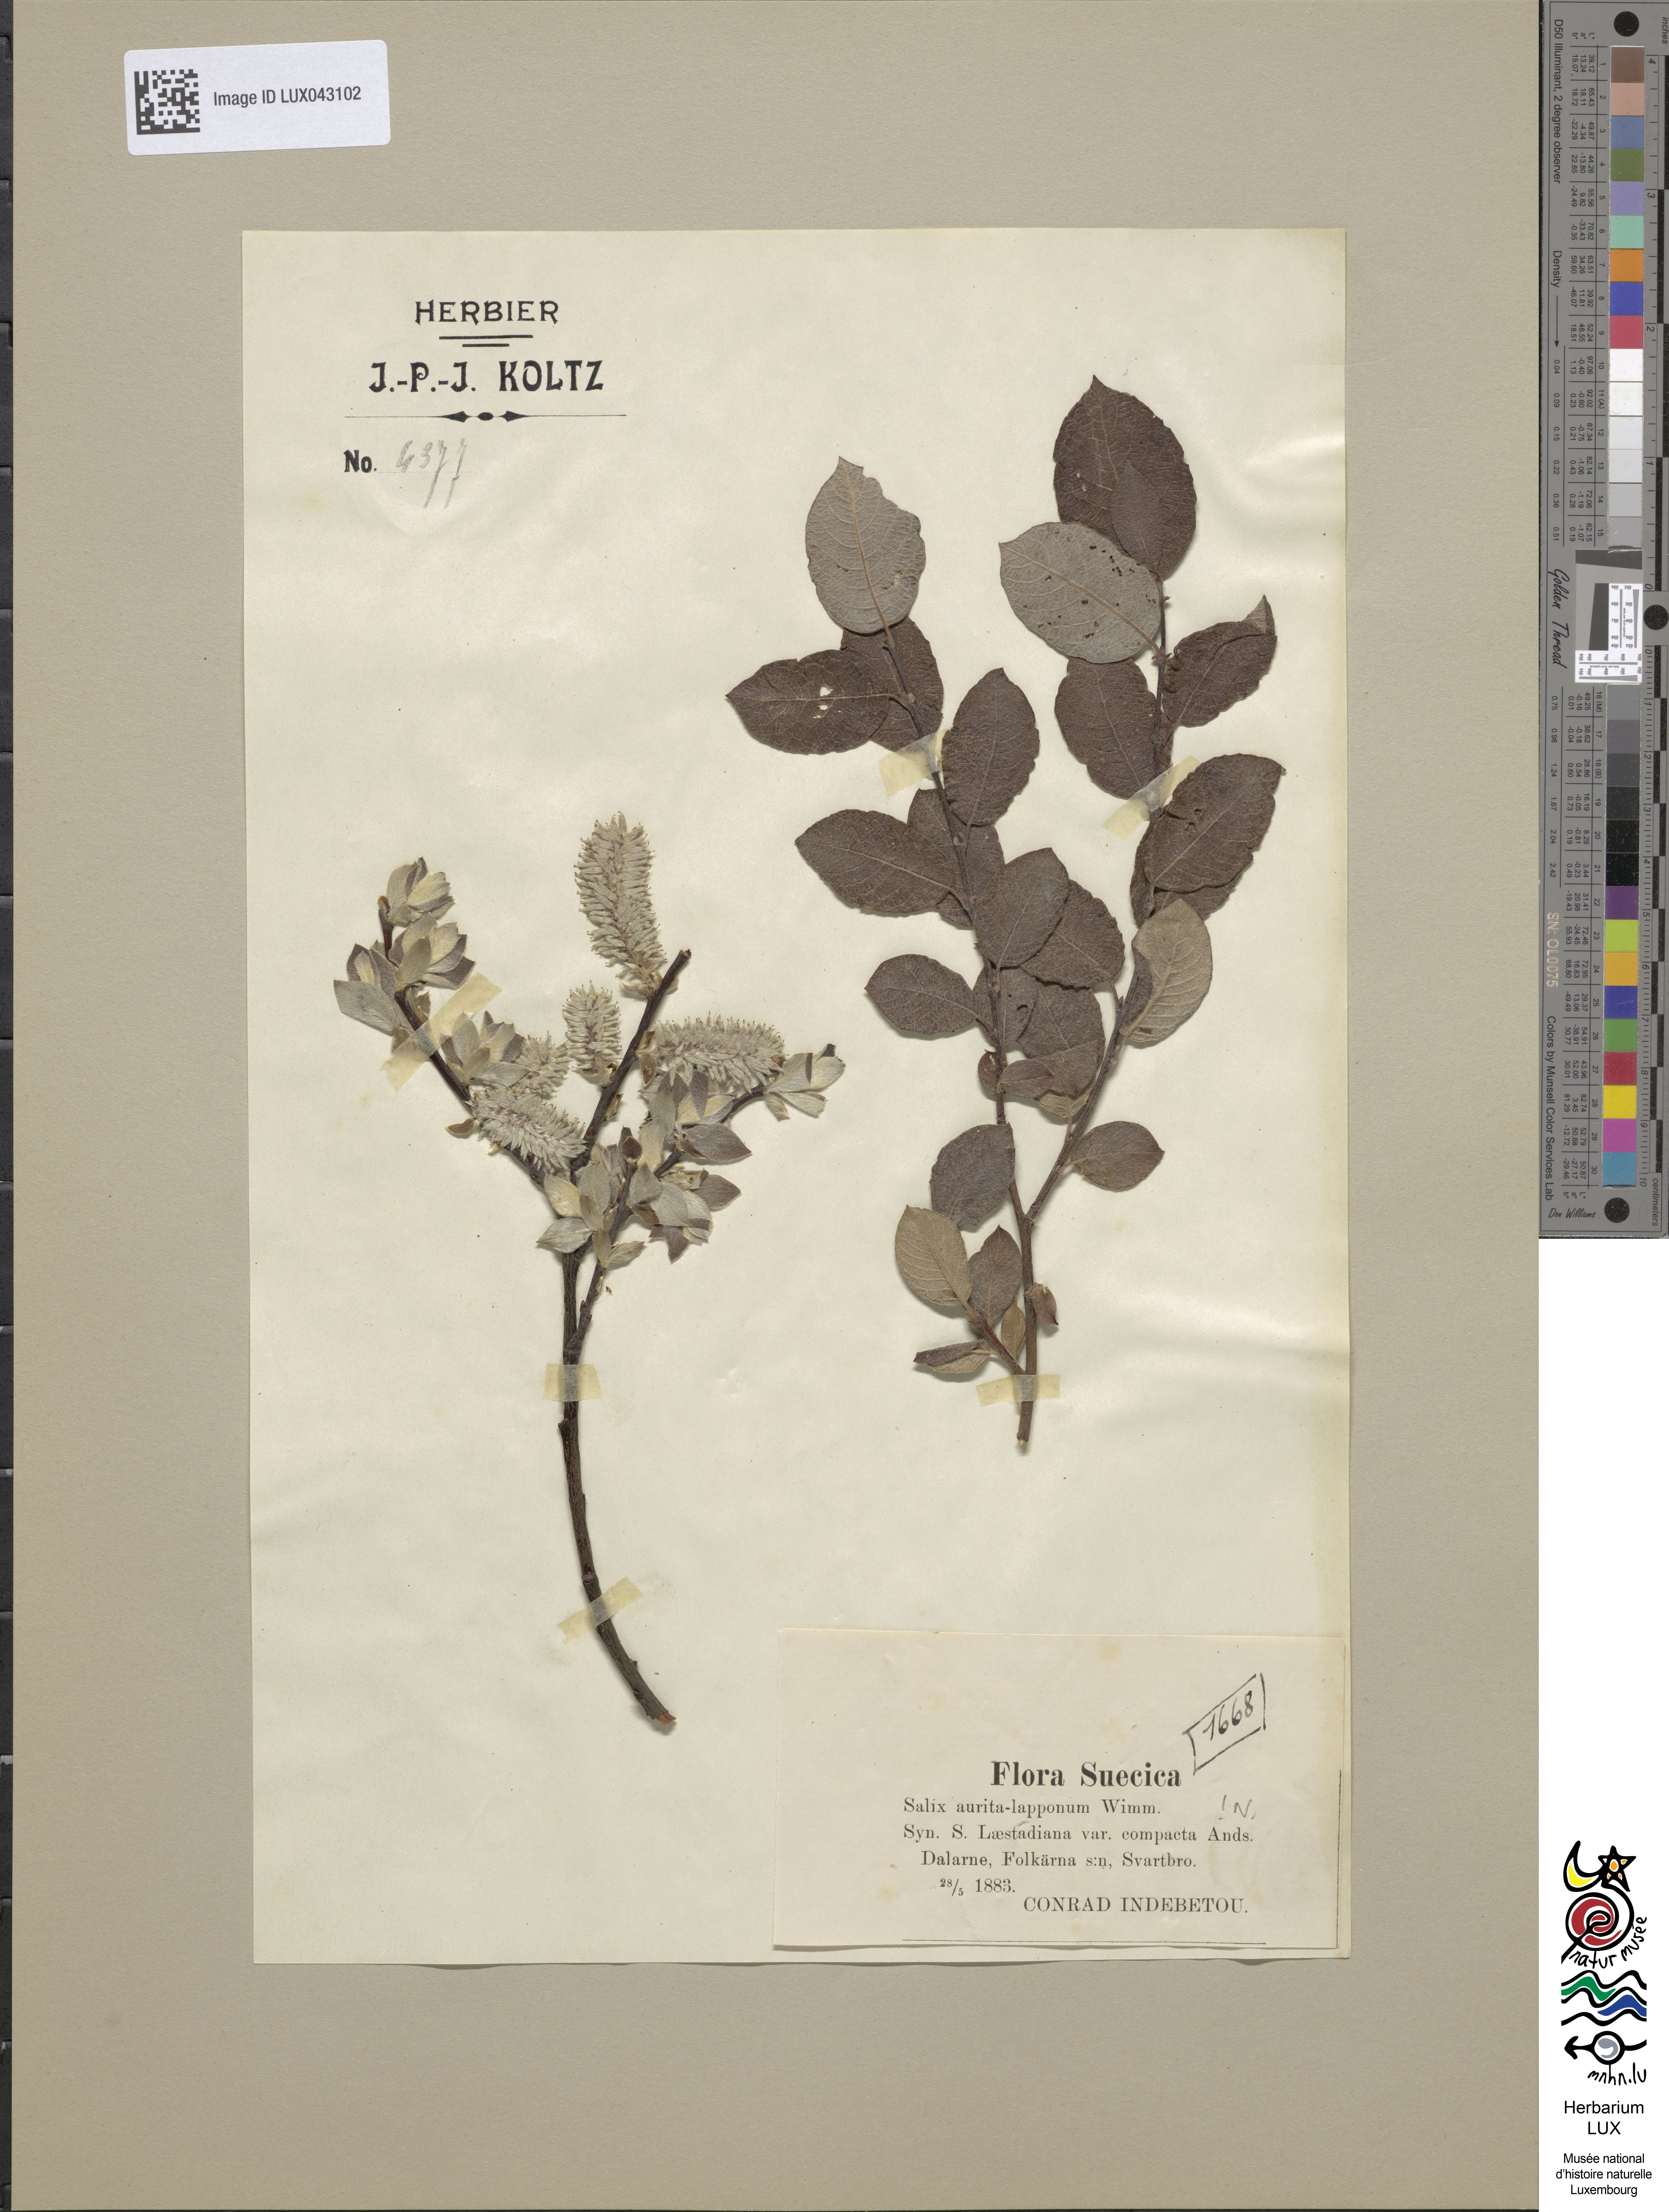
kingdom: Plantae
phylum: Tracheophyta
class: Magnoliopsida
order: Malpighiales
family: Salicaceae
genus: Salix
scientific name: Salix
